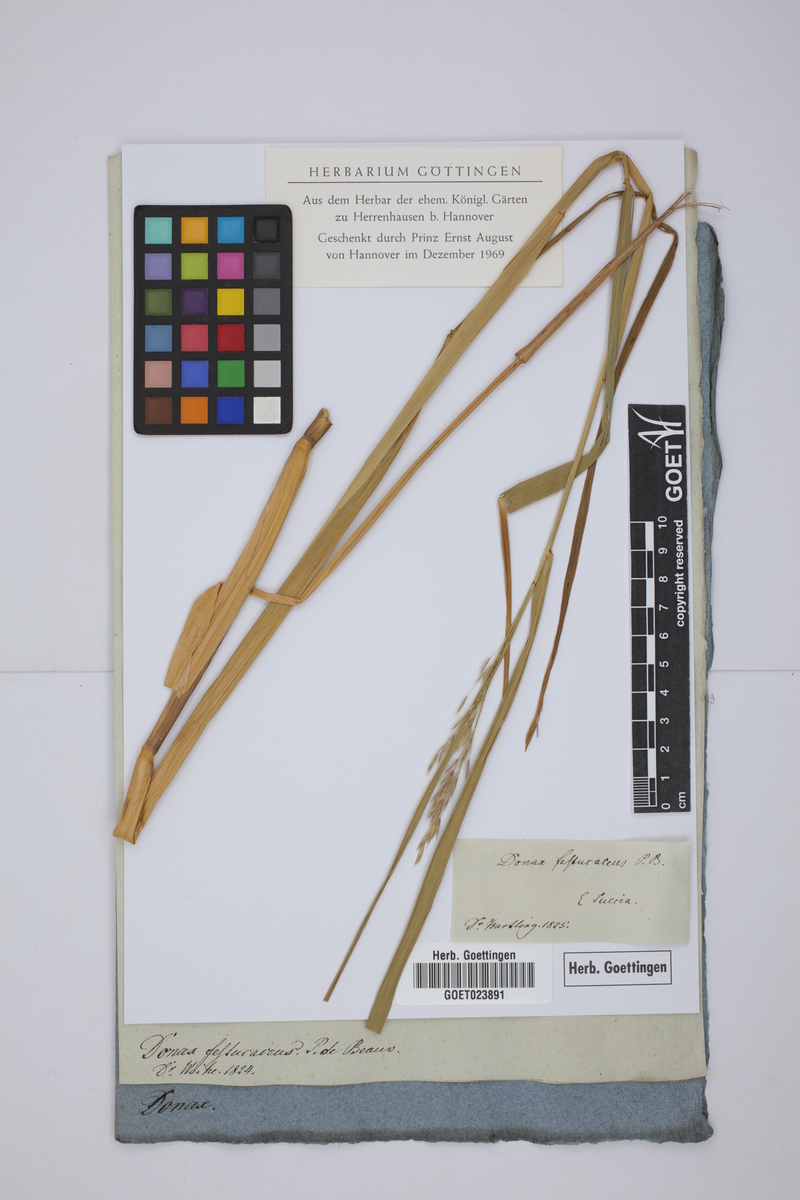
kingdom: Plantae
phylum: Tracheophyta
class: Liliopsida
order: Poales
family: Poaceae
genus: Scolochloa
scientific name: Scolochloa festucacea
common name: Common rivergrass
